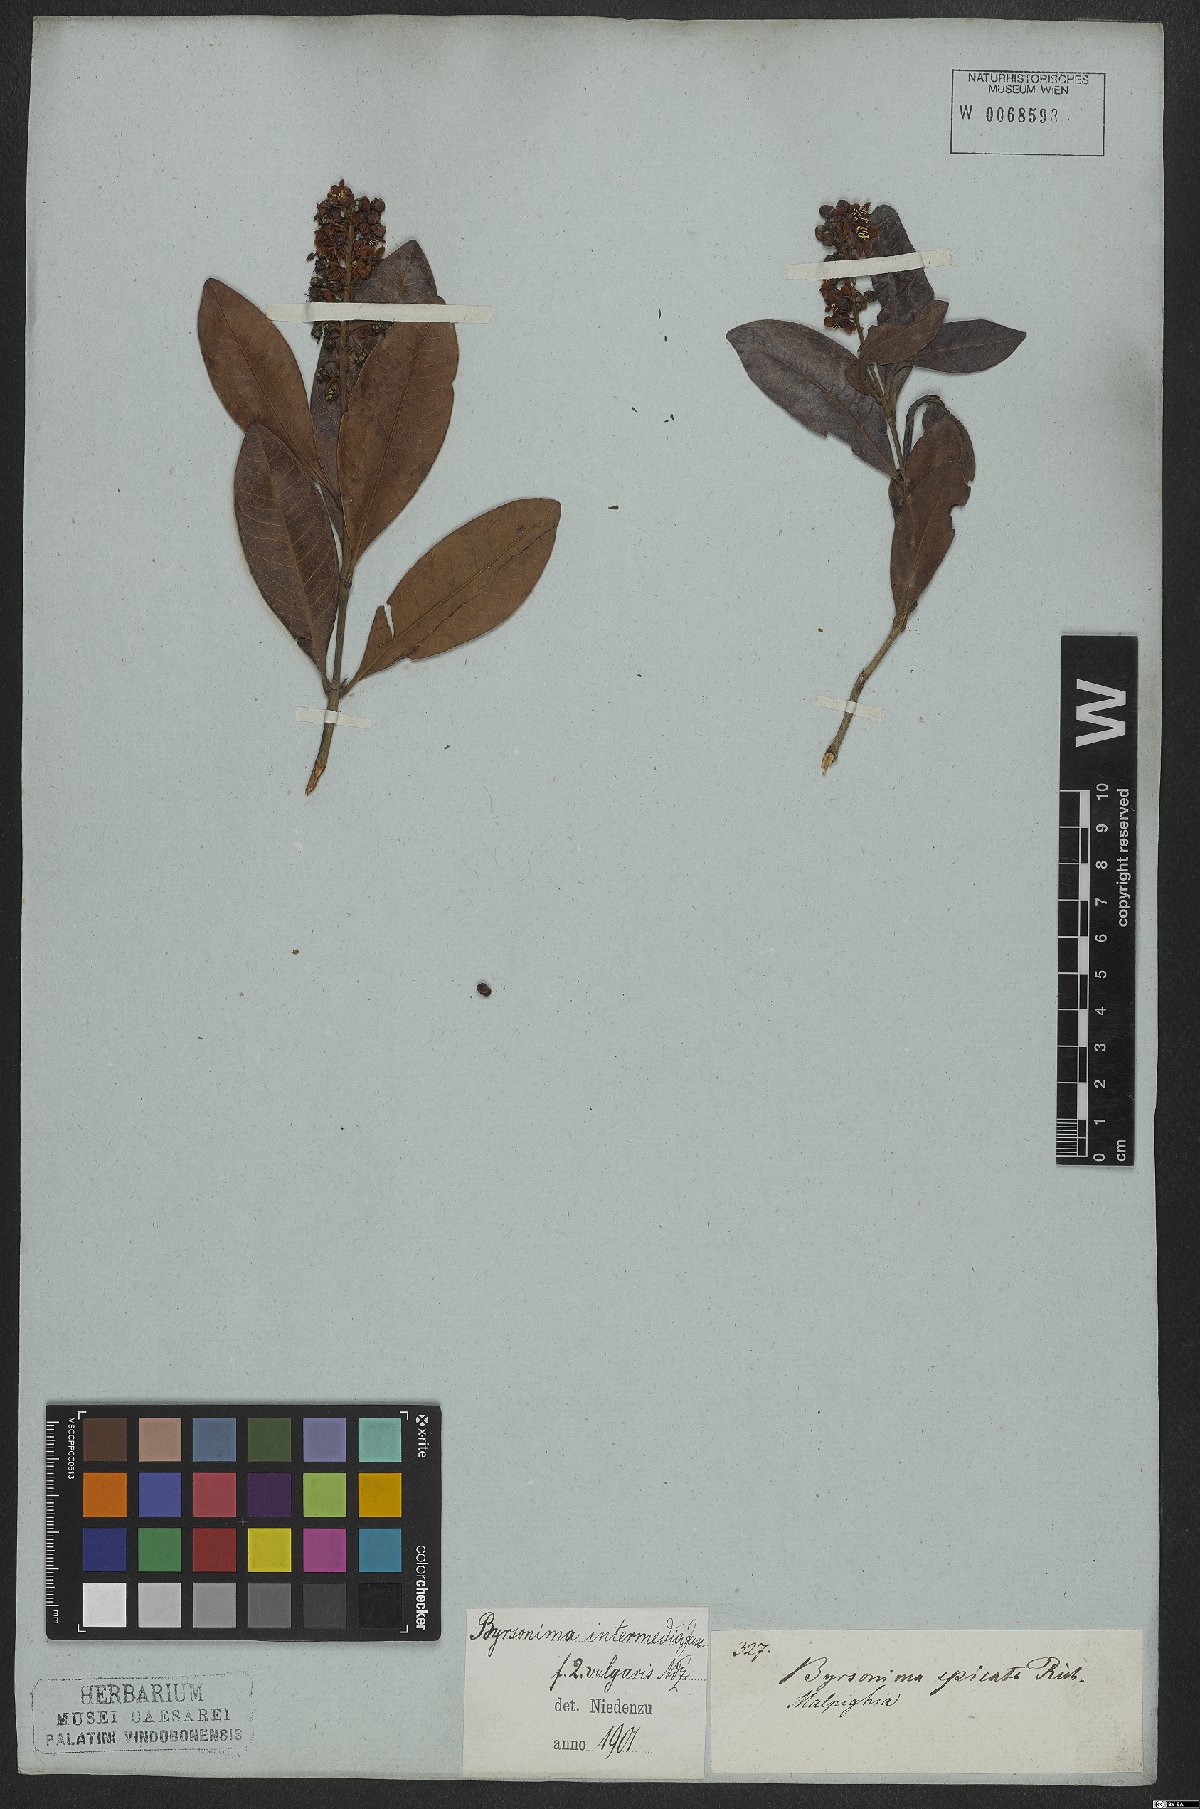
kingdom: Plantae
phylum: Tracheophyta
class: Magnoliopsida
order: Malpighiales
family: Malpighiaceae
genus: Byrsonima
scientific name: Byrsonima intermedia
